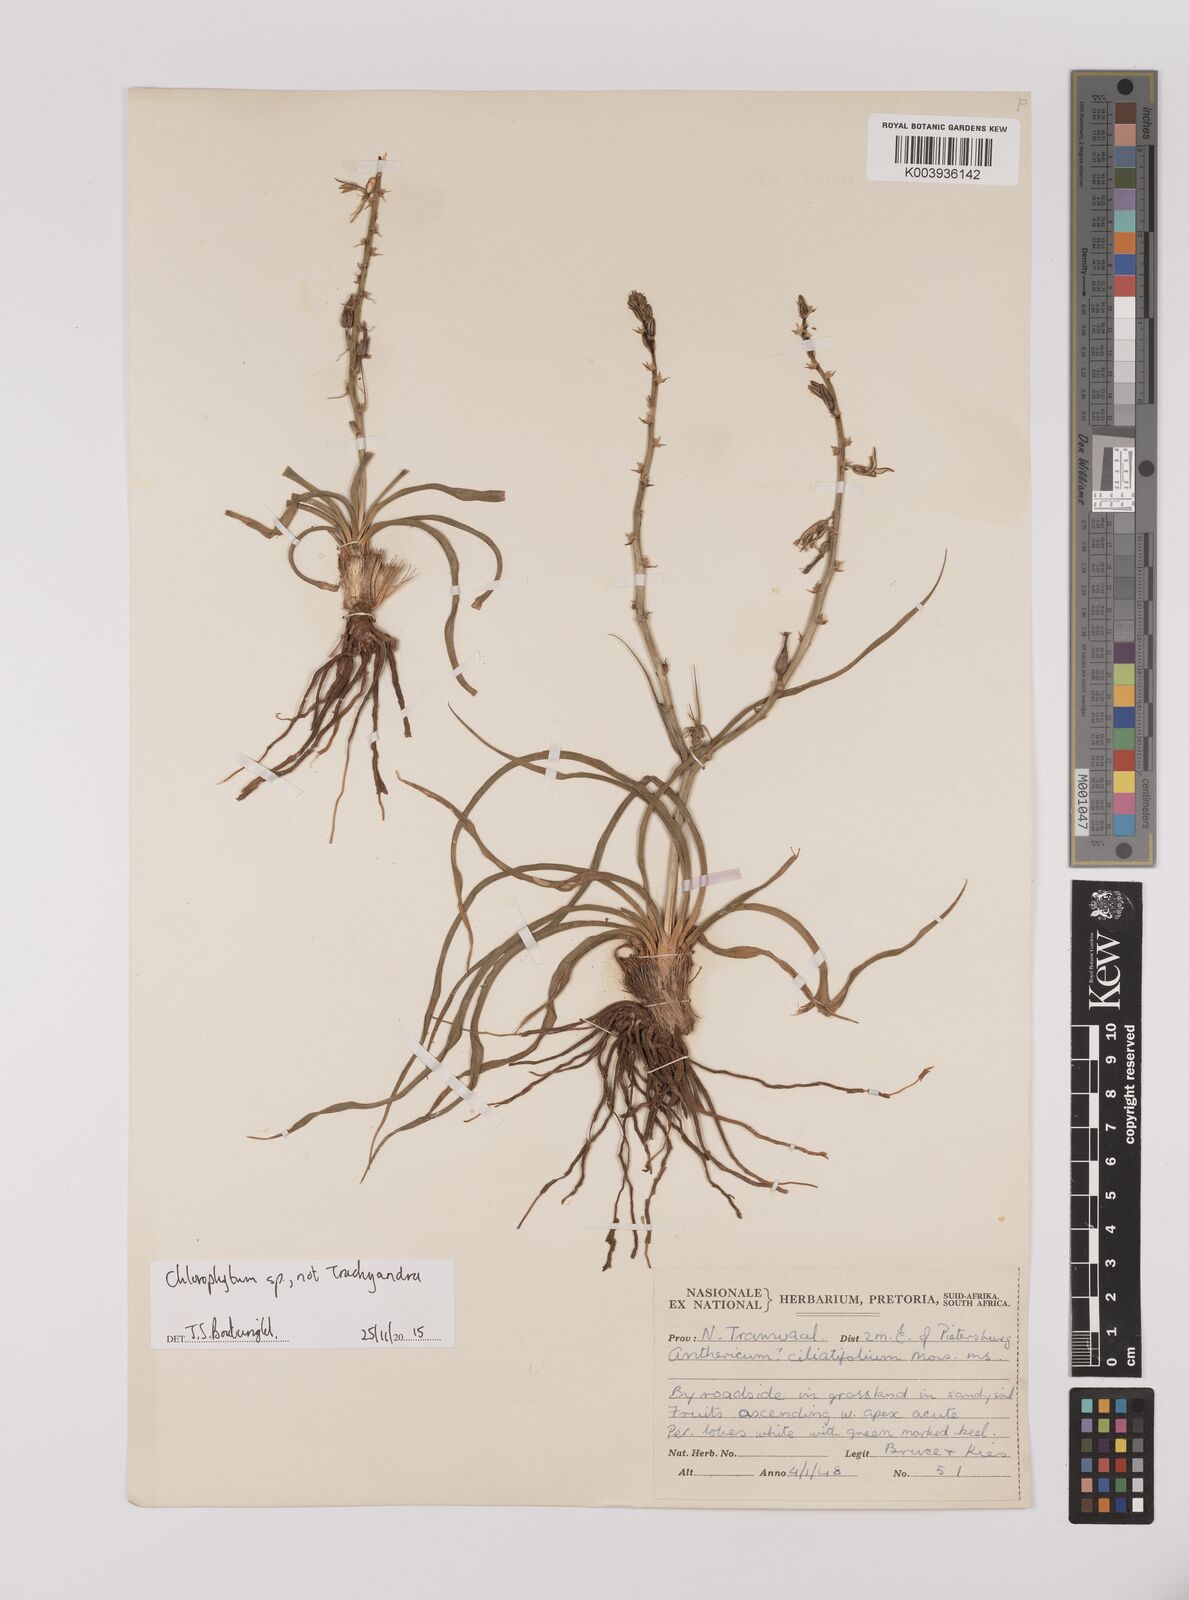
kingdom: Plantae
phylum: Tracheophyta
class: Liliopsida
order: Asparagales
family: Asparagaceae
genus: Chlorophytum
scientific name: Chlorophytum
